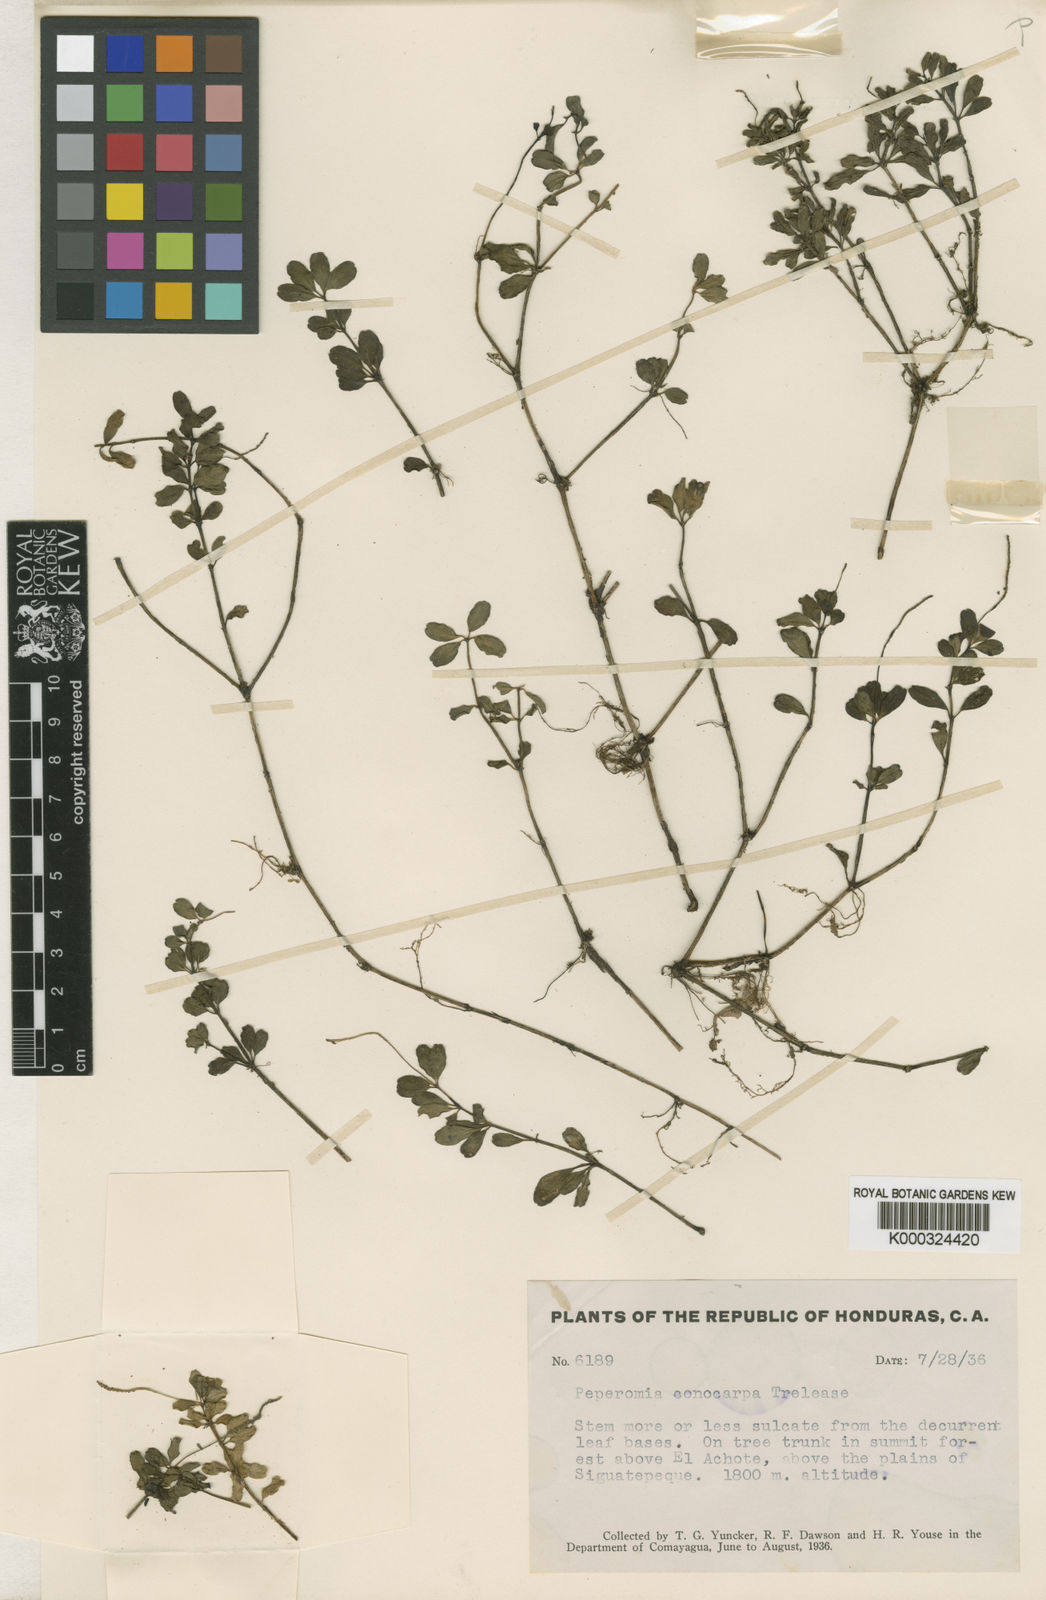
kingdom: Plantae
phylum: Tracheophyta
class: Magnoliopsida
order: Piperales
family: Piperaceae
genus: Peperomia
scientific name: Peperomia quadrifolia
